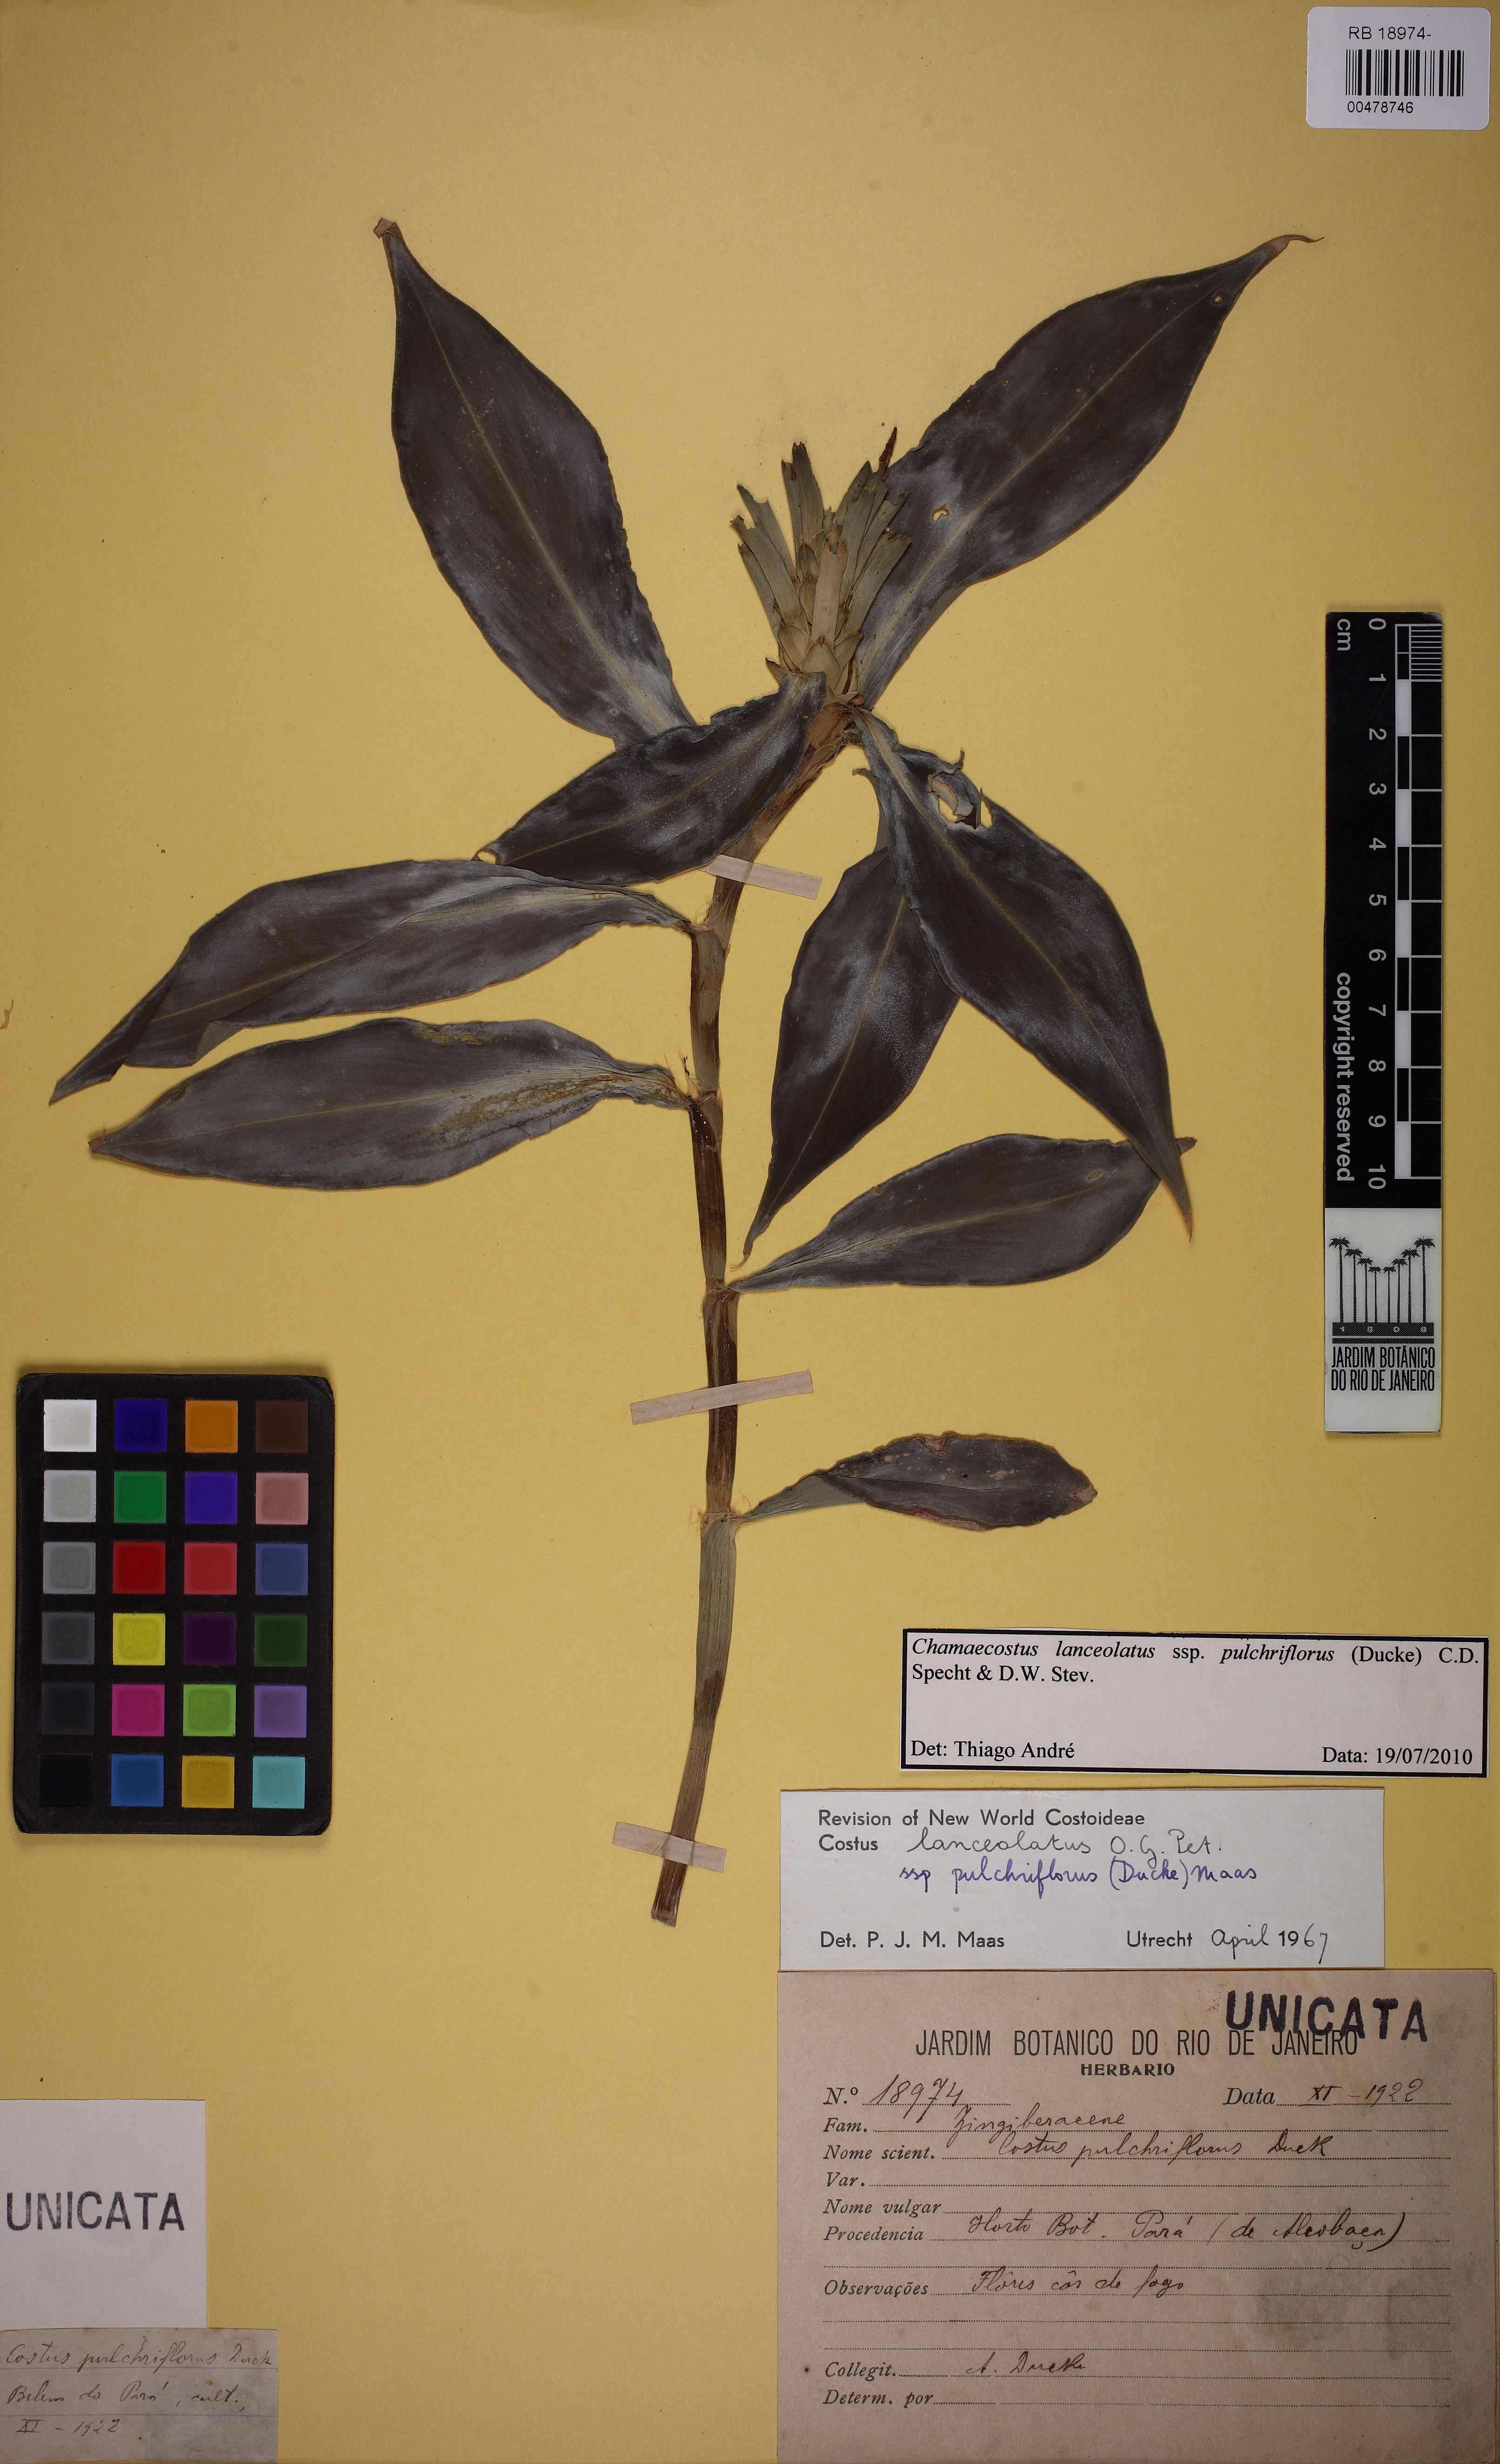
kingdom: Plantae
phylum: Tracheophyta
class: Liliopsida
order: Zingiberales
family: Costaceae
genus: Chamaecostus
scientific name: Chamaecostus lanceolatus
